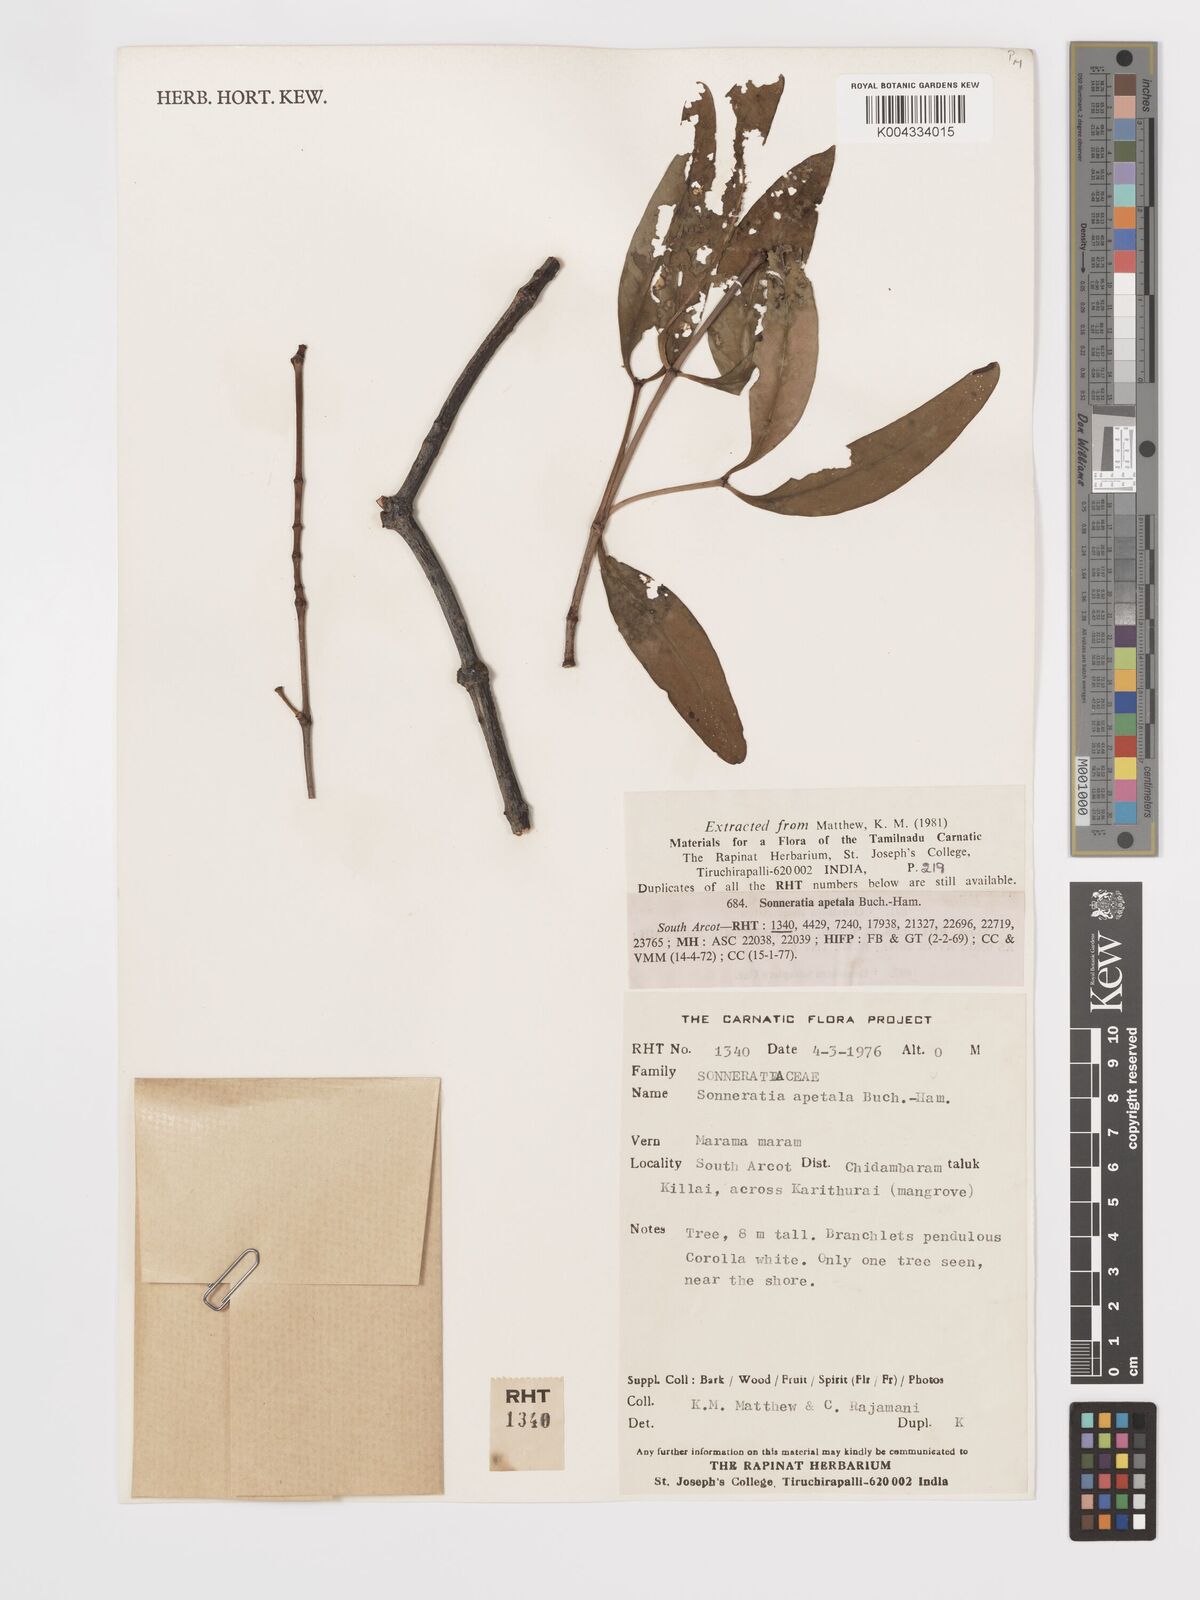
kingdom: Plantae
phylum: Tracheophyta
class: Magnoliopsida
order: Myrtales
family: Lythraceae
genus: Sonneratia
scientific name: Sonneratia apetala
